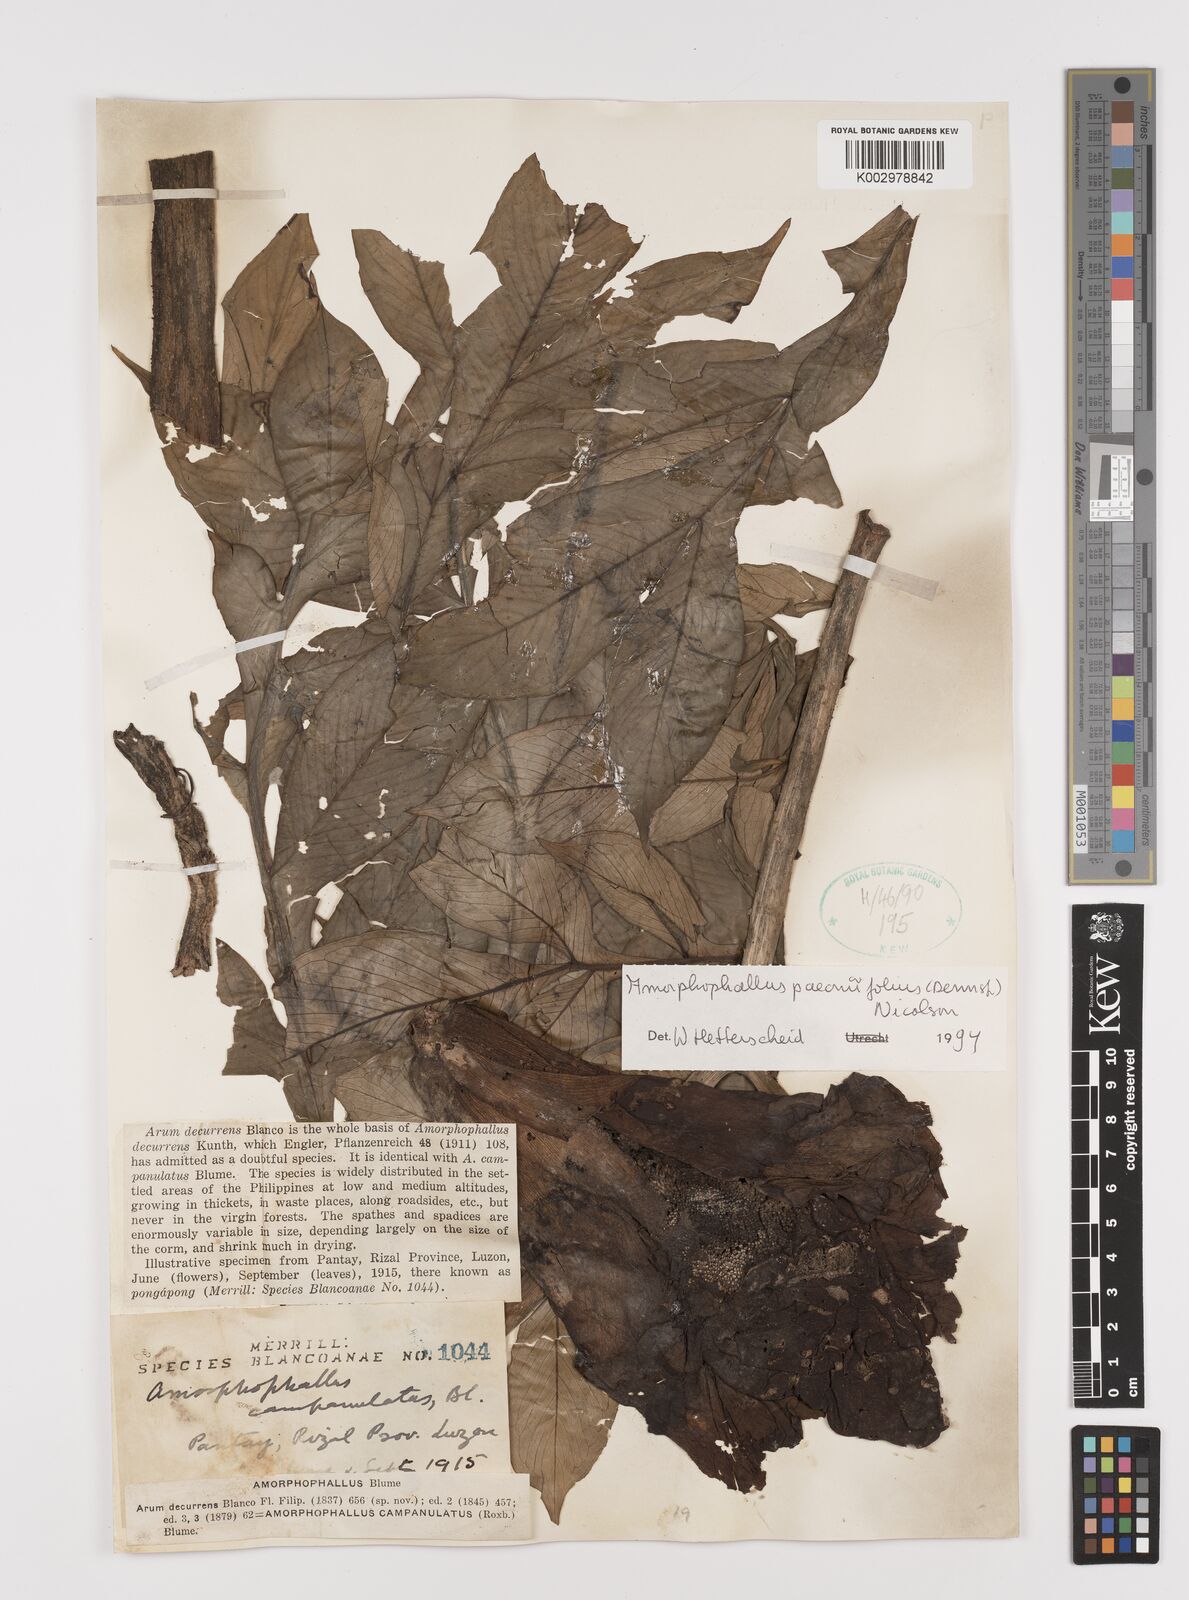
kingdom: Plantae
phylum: Tracheophyta
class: Liliopsida
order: Alismatales
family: Araceae
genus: Amorphophallus
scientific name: Amorphophallus paeoniifolius
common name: Telinga-potato
